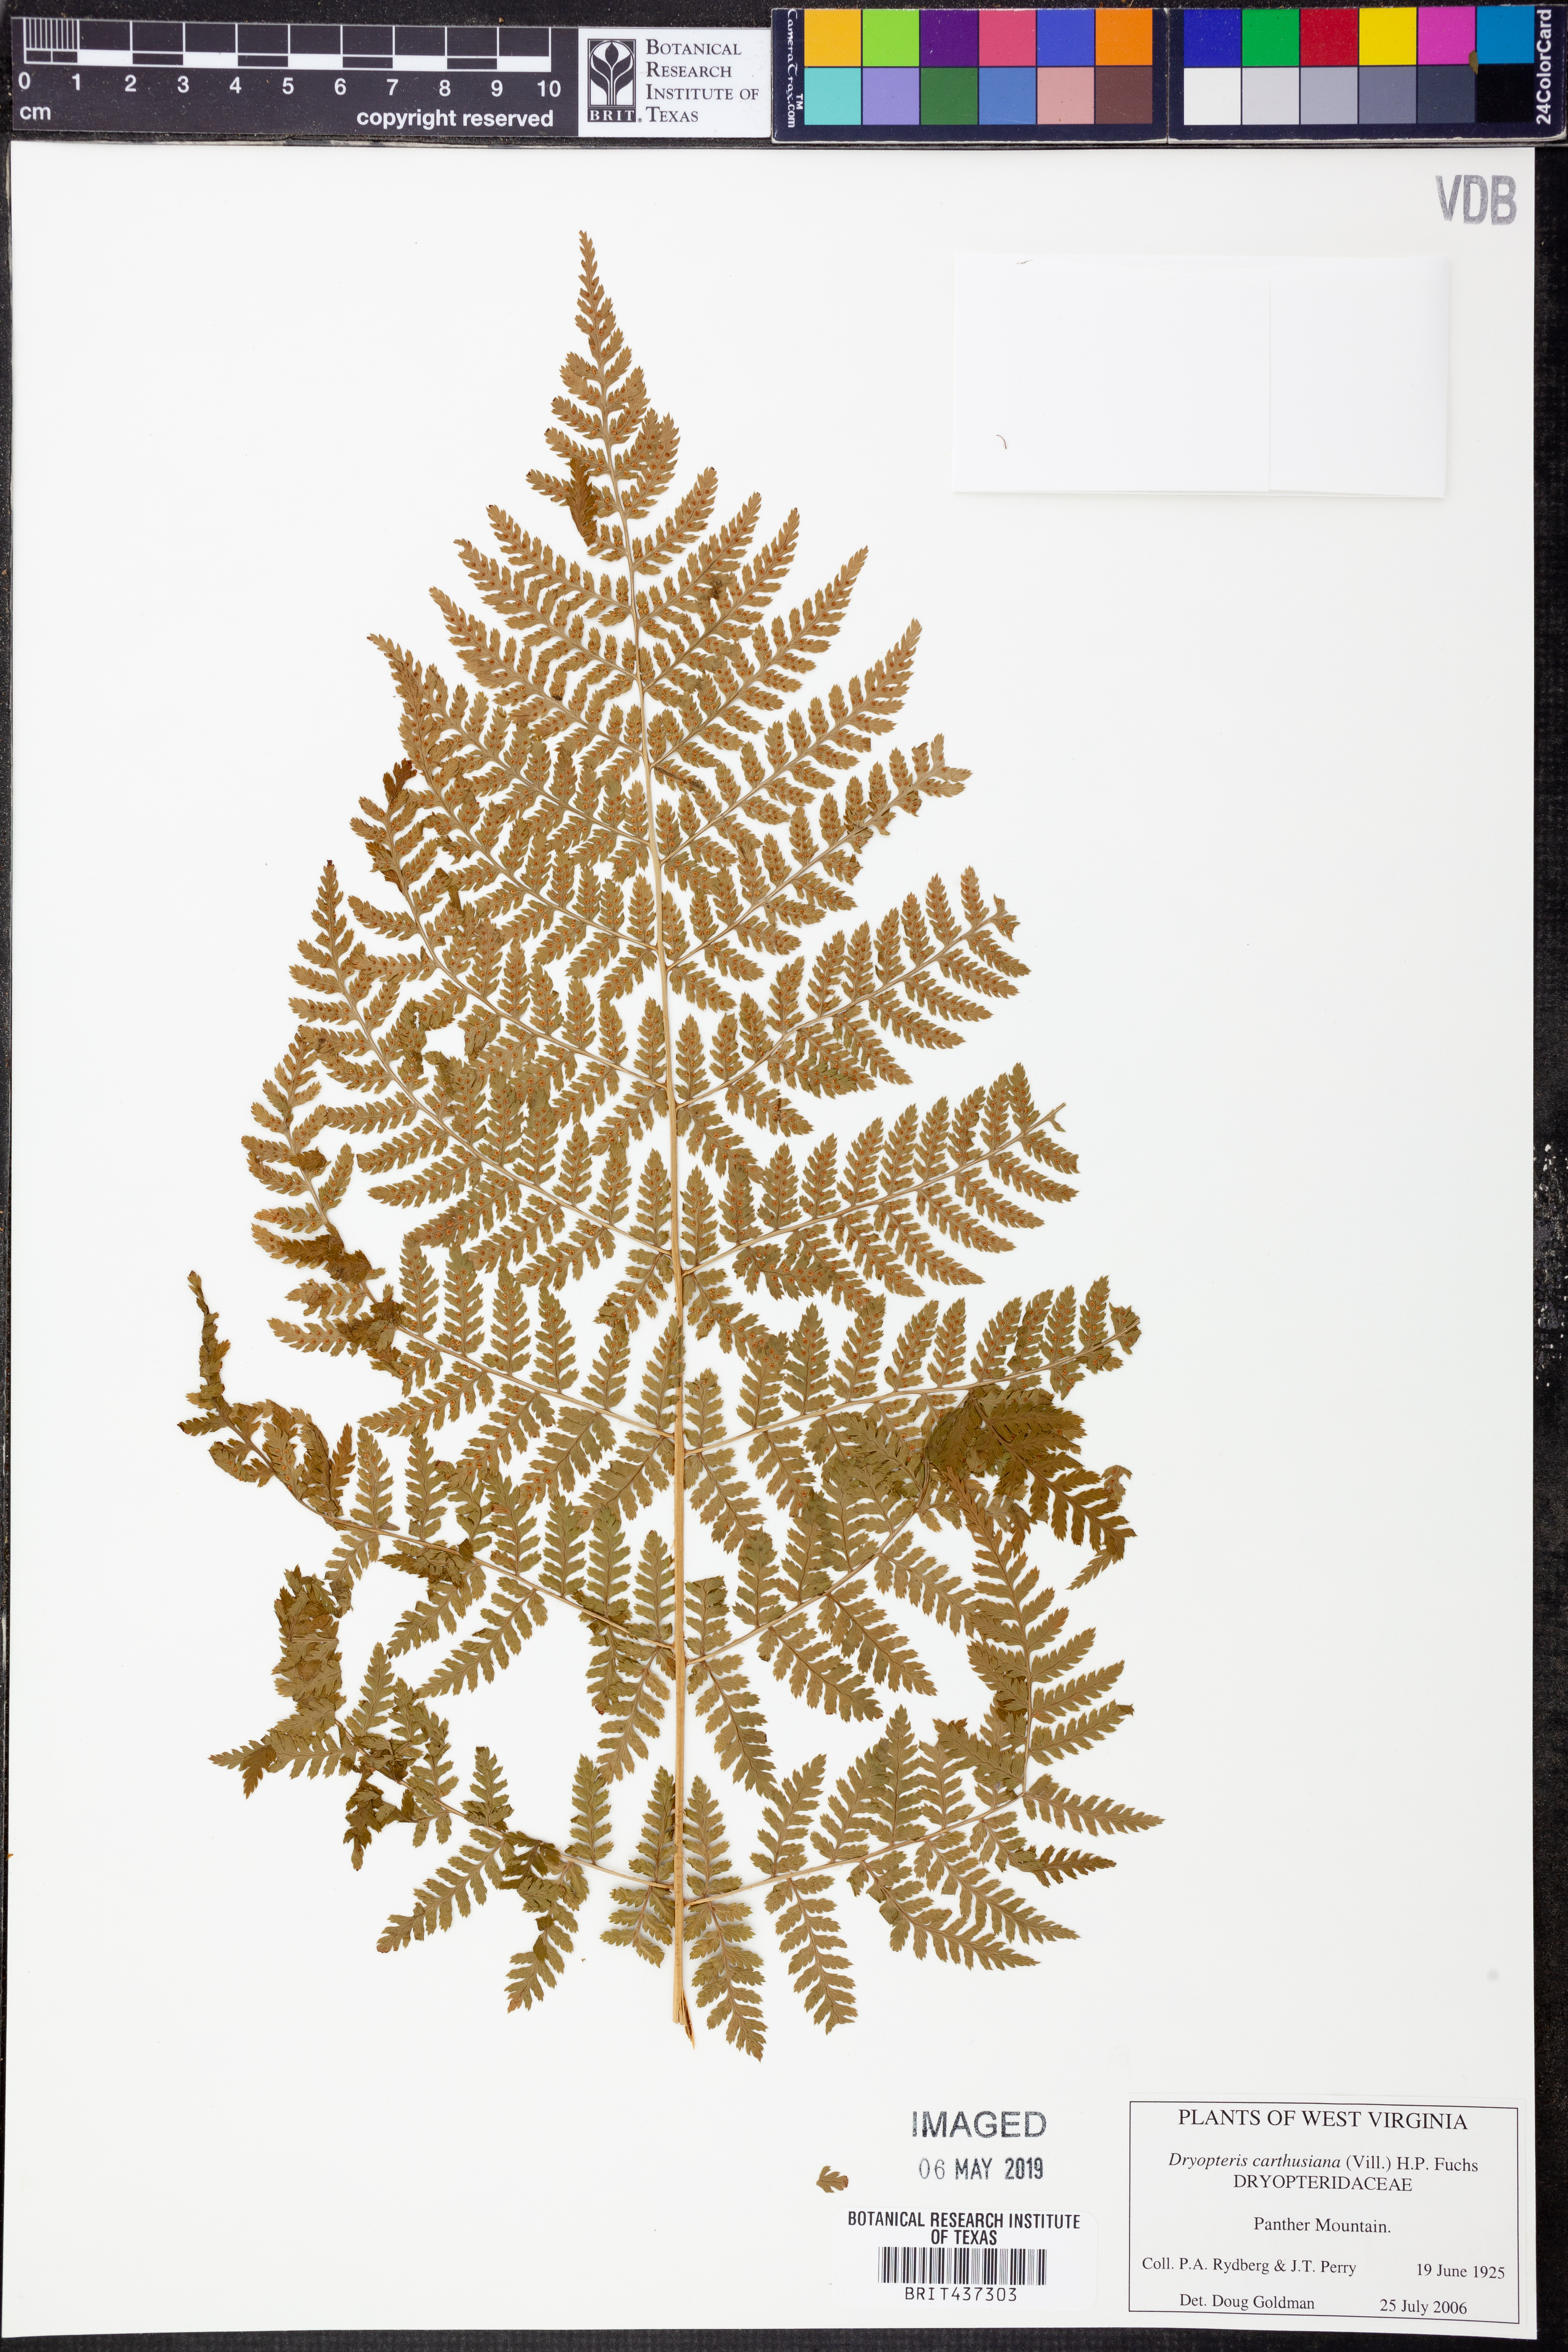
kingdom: Plantae
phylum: Tracheophyta
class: Polypodiopsida
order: Polypodiales
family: Dryopteridaceae
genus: Dryopteris
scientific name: Dryopteris carthusiana
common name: Narrow buckler-fern
